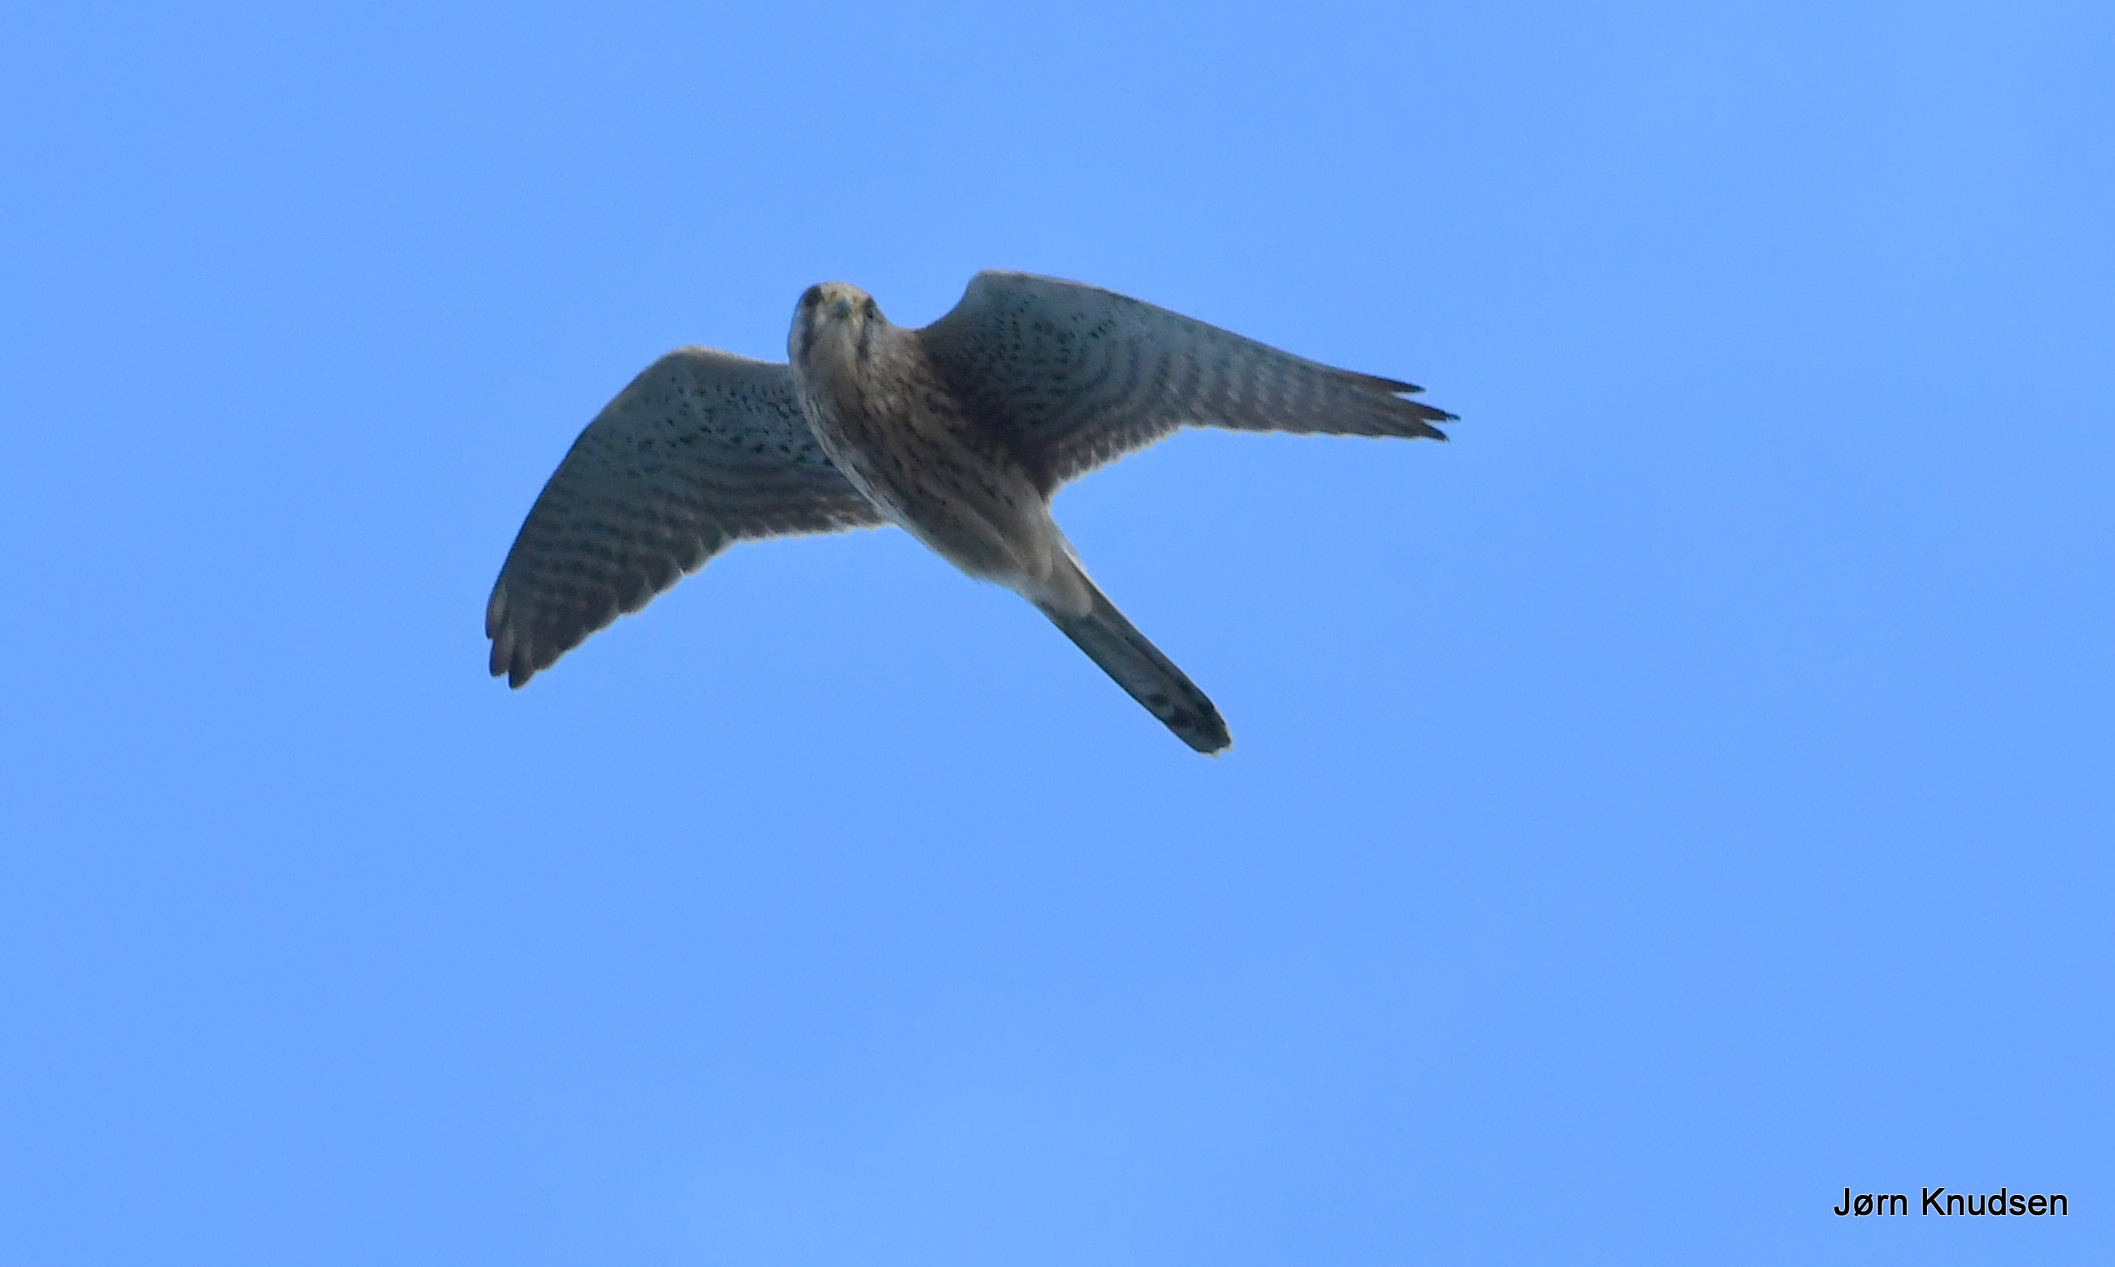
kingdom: Animalia
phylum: Chordata
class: Aves
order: Falconiformes
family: Falconidae
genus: Falco
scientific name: Falco tinnunculus
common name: Tårnfalk
